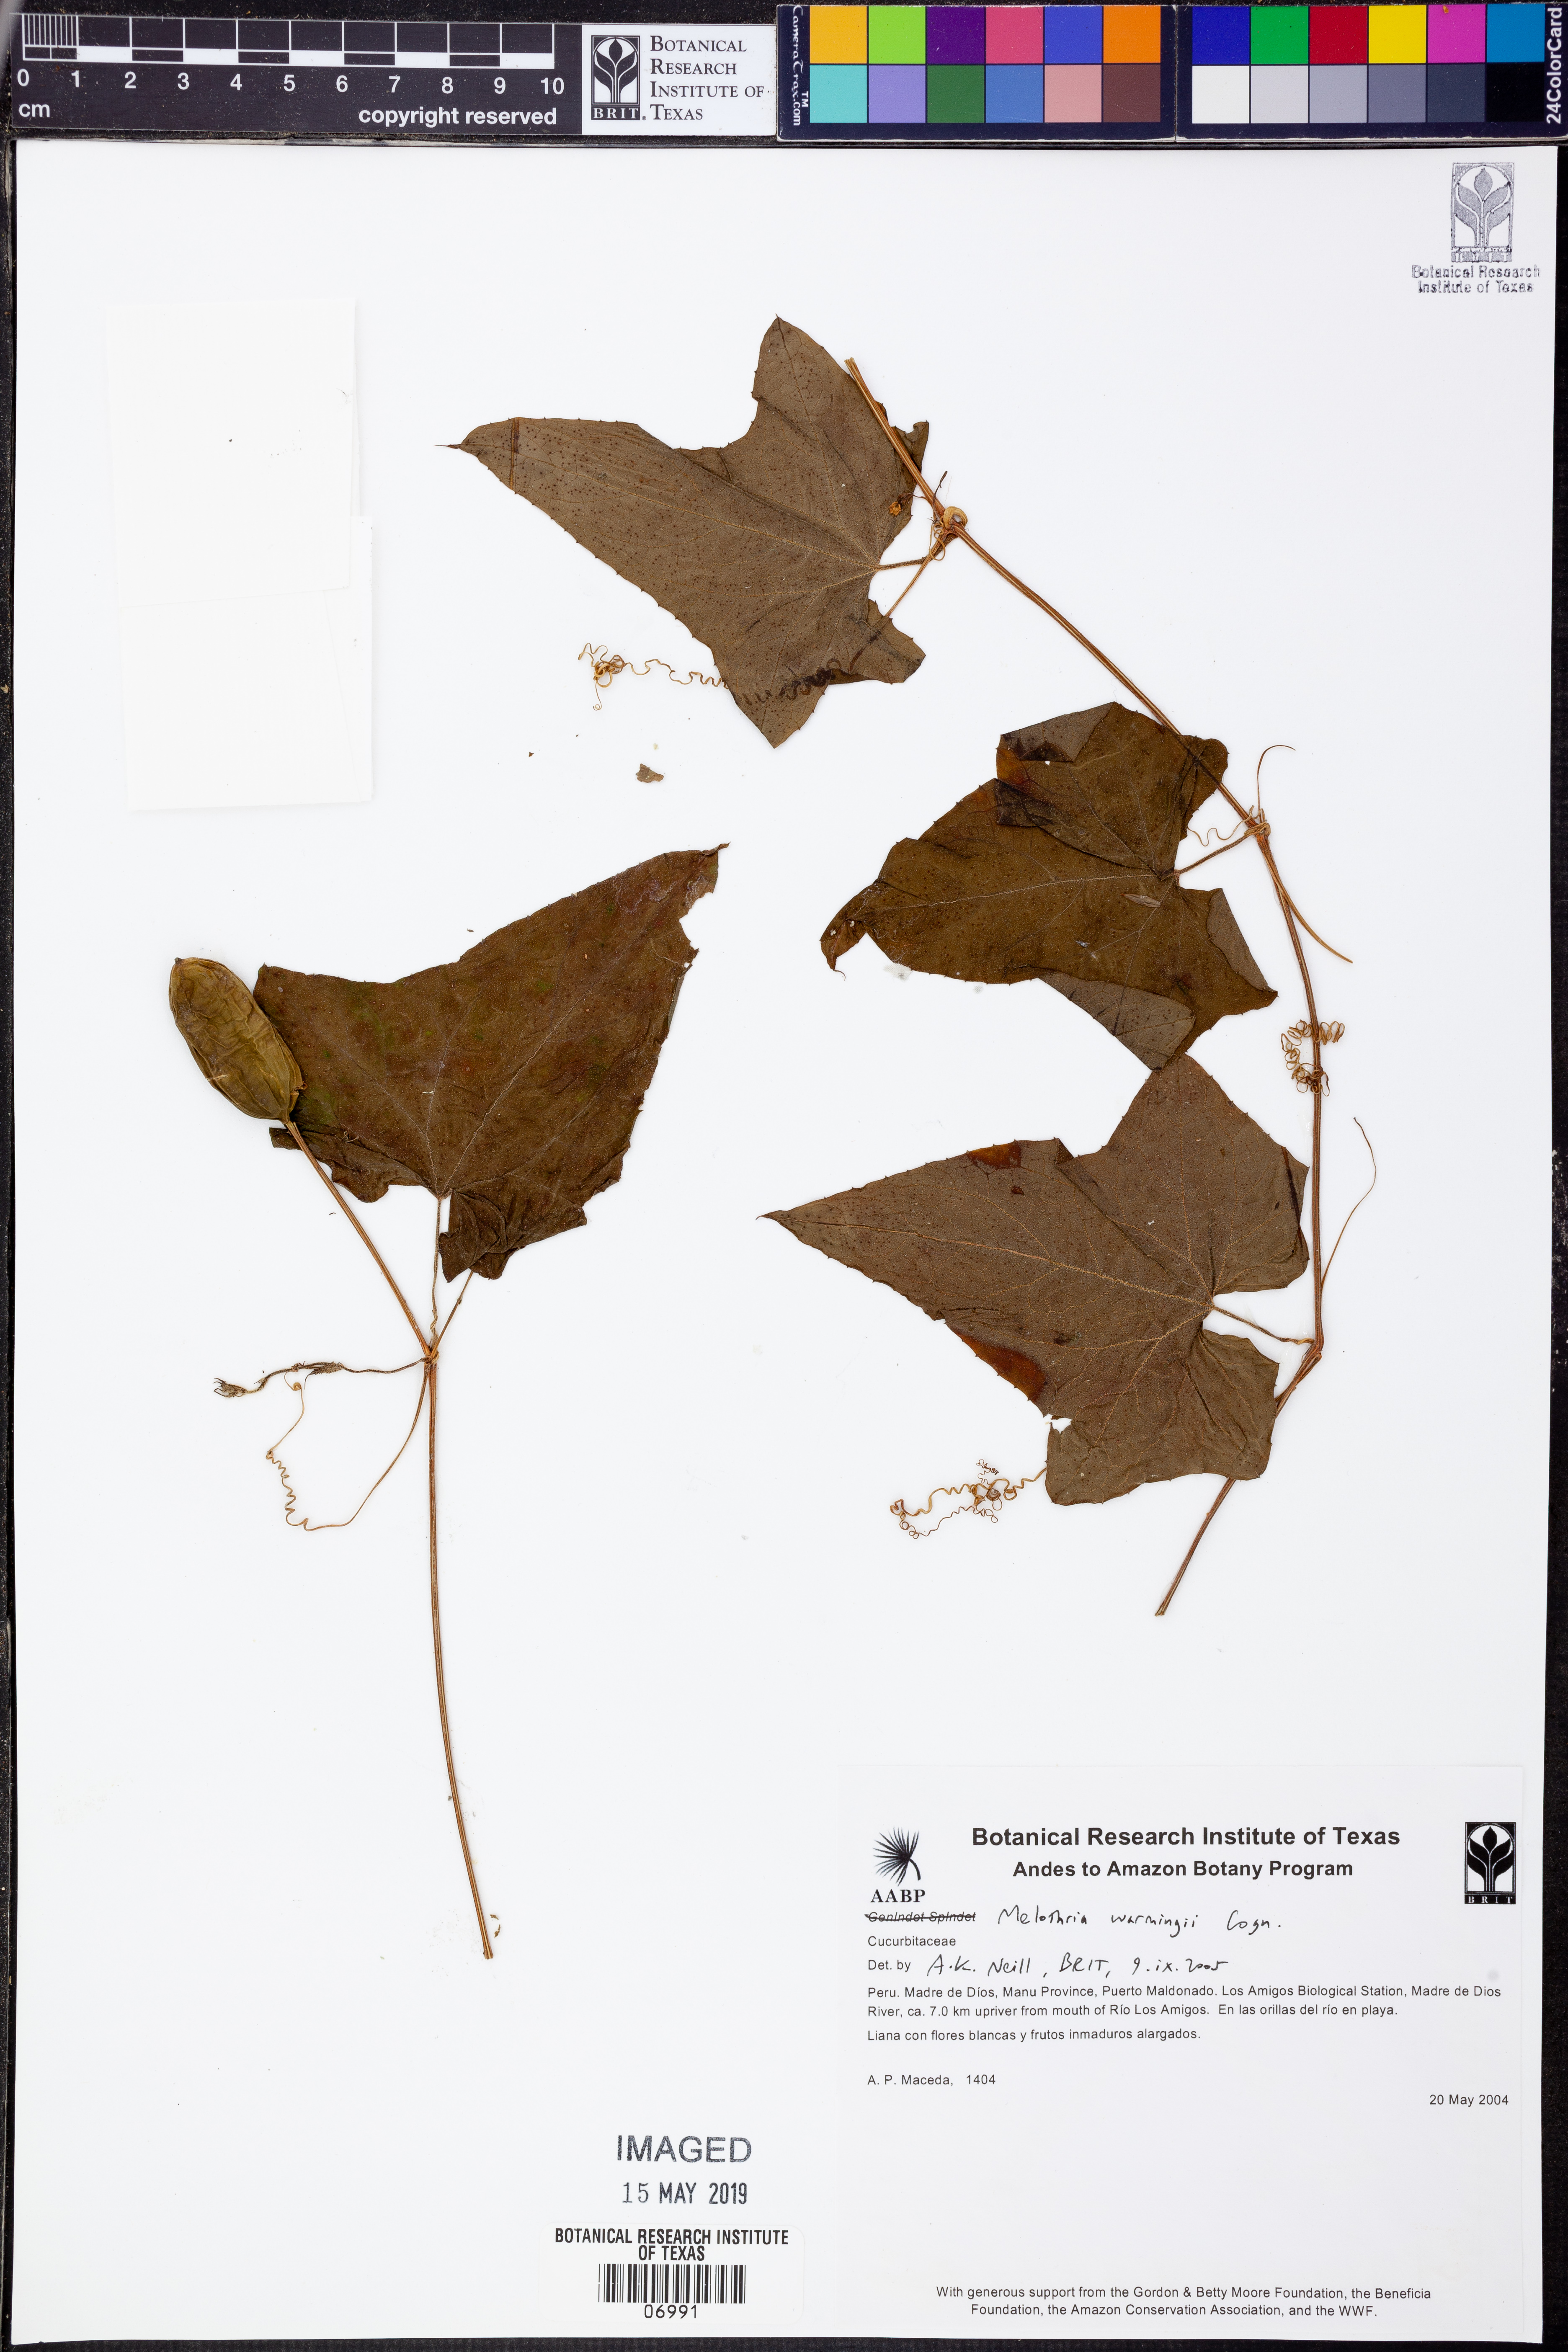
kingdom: Plantae
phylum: Tracheophyta
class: Magnoliopsida
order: Cucurbitales
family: Cucurbitaceae
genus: Melothria
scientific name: Melothria
